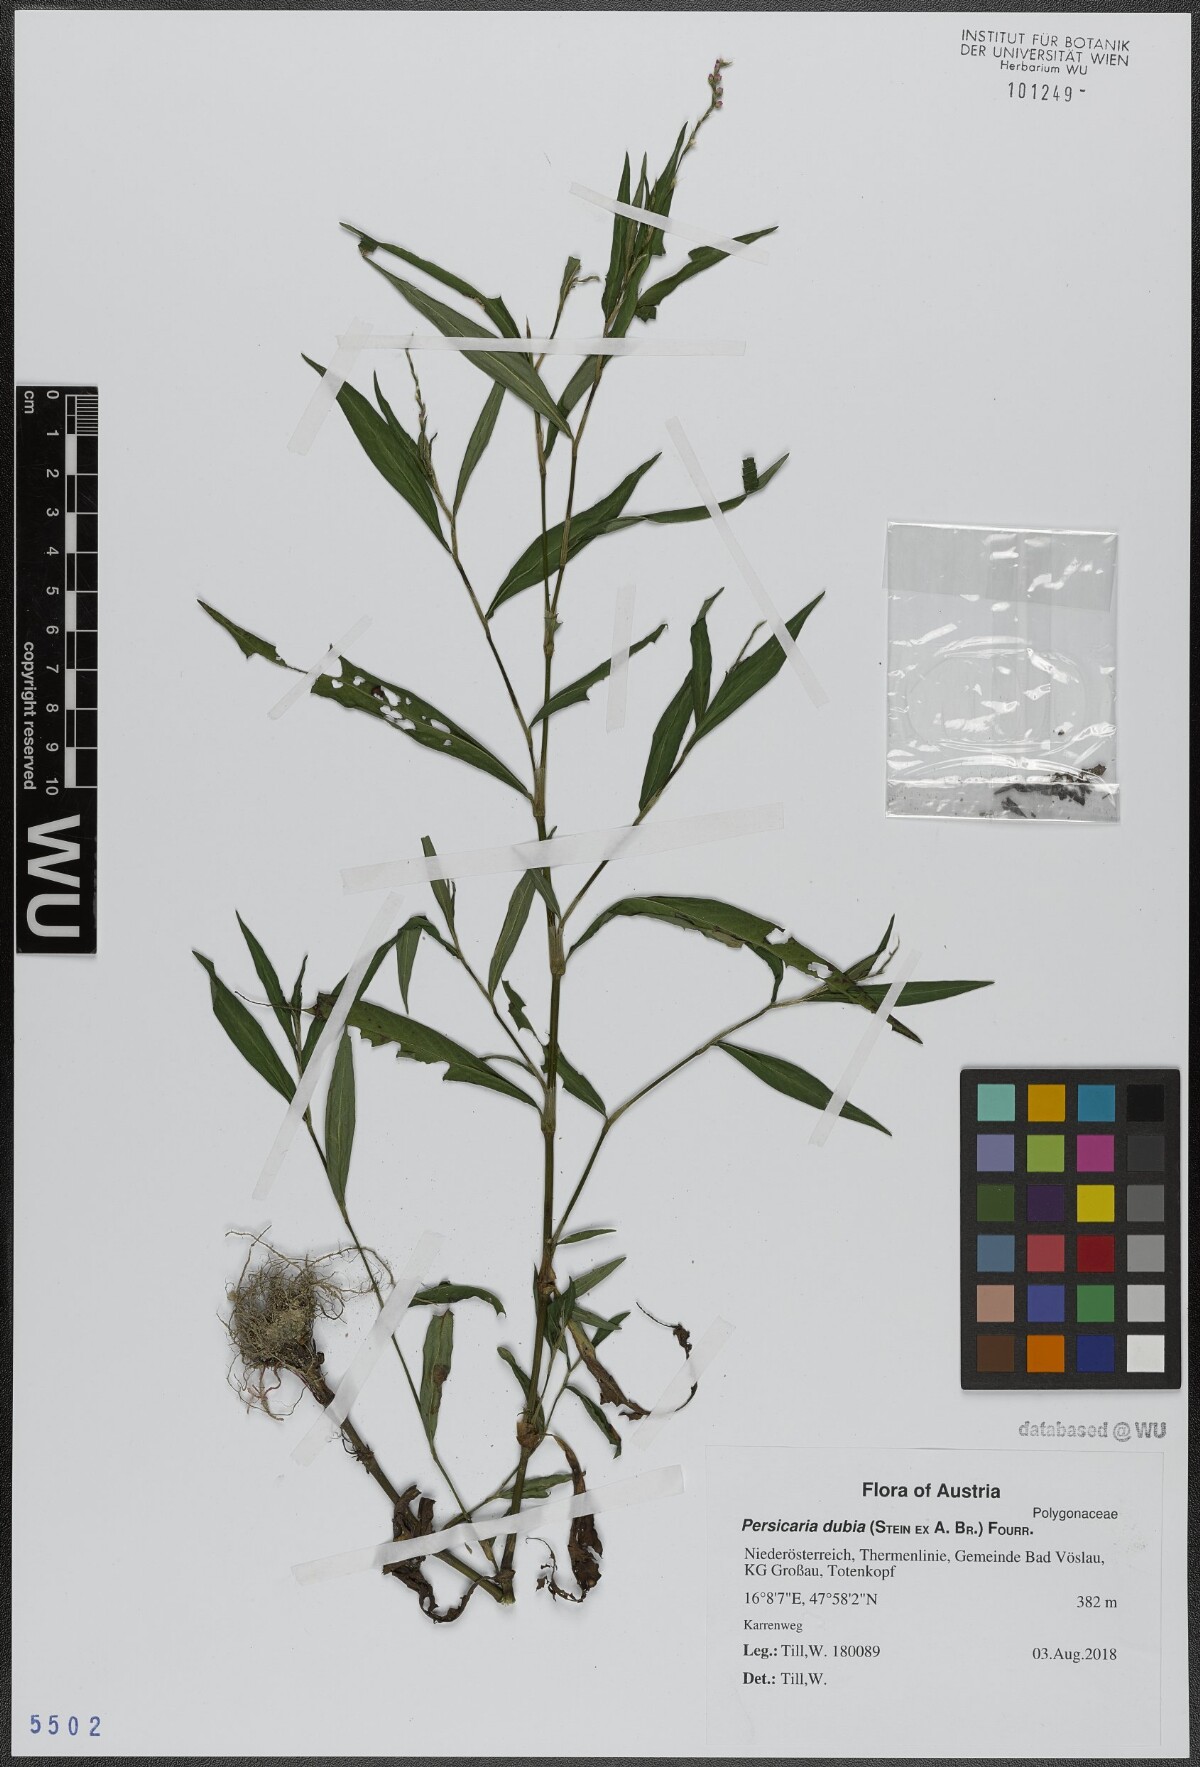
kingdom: Plantae
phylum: Tracheophyta
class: Magnoliopsida
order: Caryophyllales
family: Polygonaceae
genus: Persicaria
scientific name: Persicaria mitis
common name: Tasteless water-pepper
